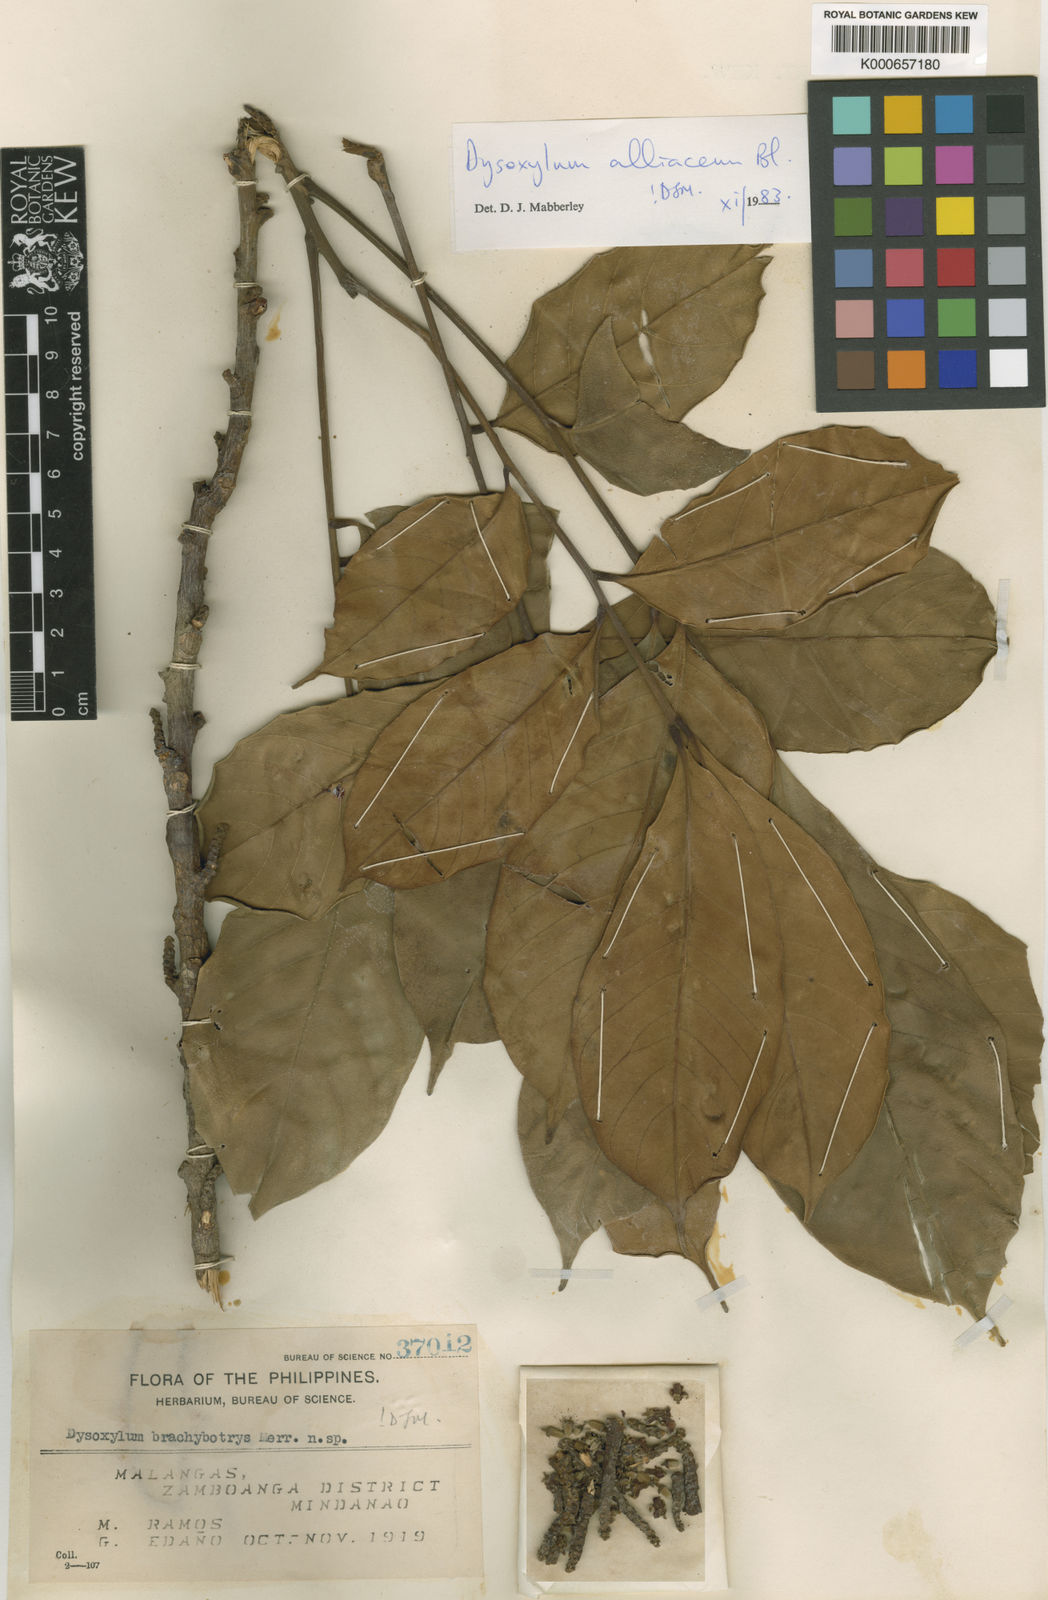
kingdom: Plantae
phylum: Tracheophyta
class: Magnoliopsida
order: Sapindales
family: Meliaceae
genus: Prasoxylon
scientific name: Prasoxylon alliaceum
